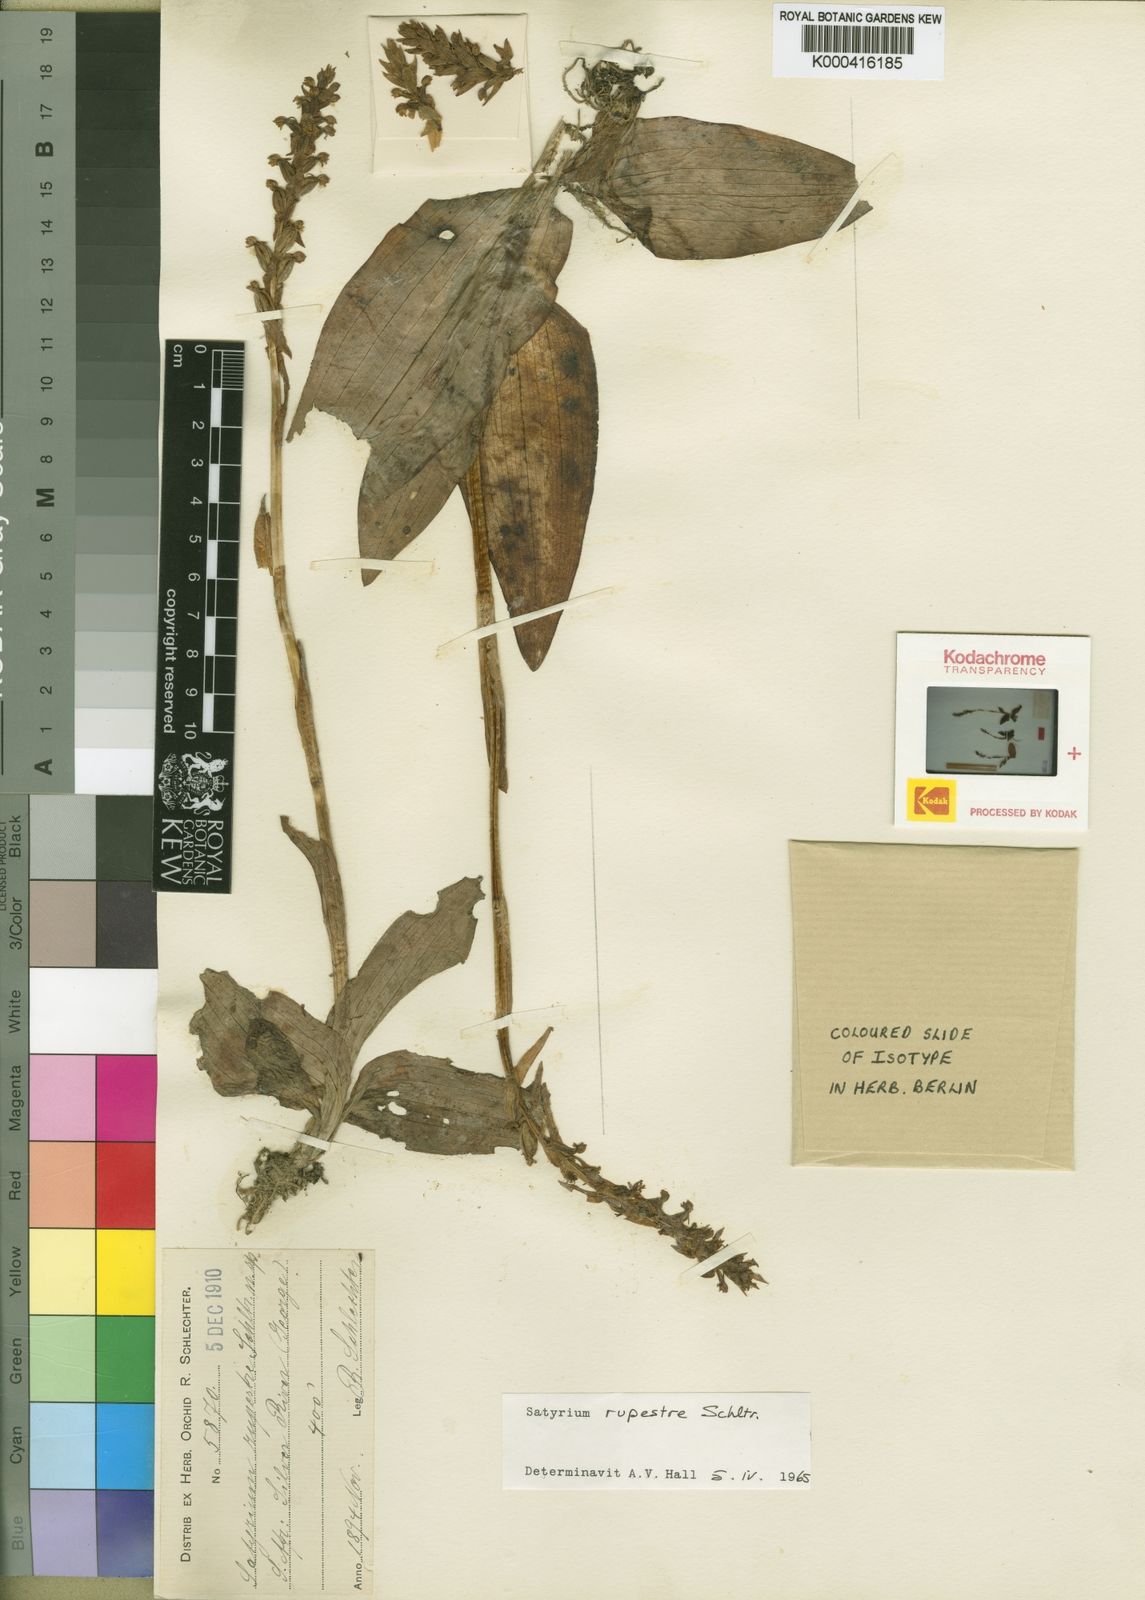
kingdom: Plantae
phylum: Tracheophyta
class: Liliopsida
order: Asparagales
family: Orchidaceae
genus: Satyrium
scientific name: Satyrium
